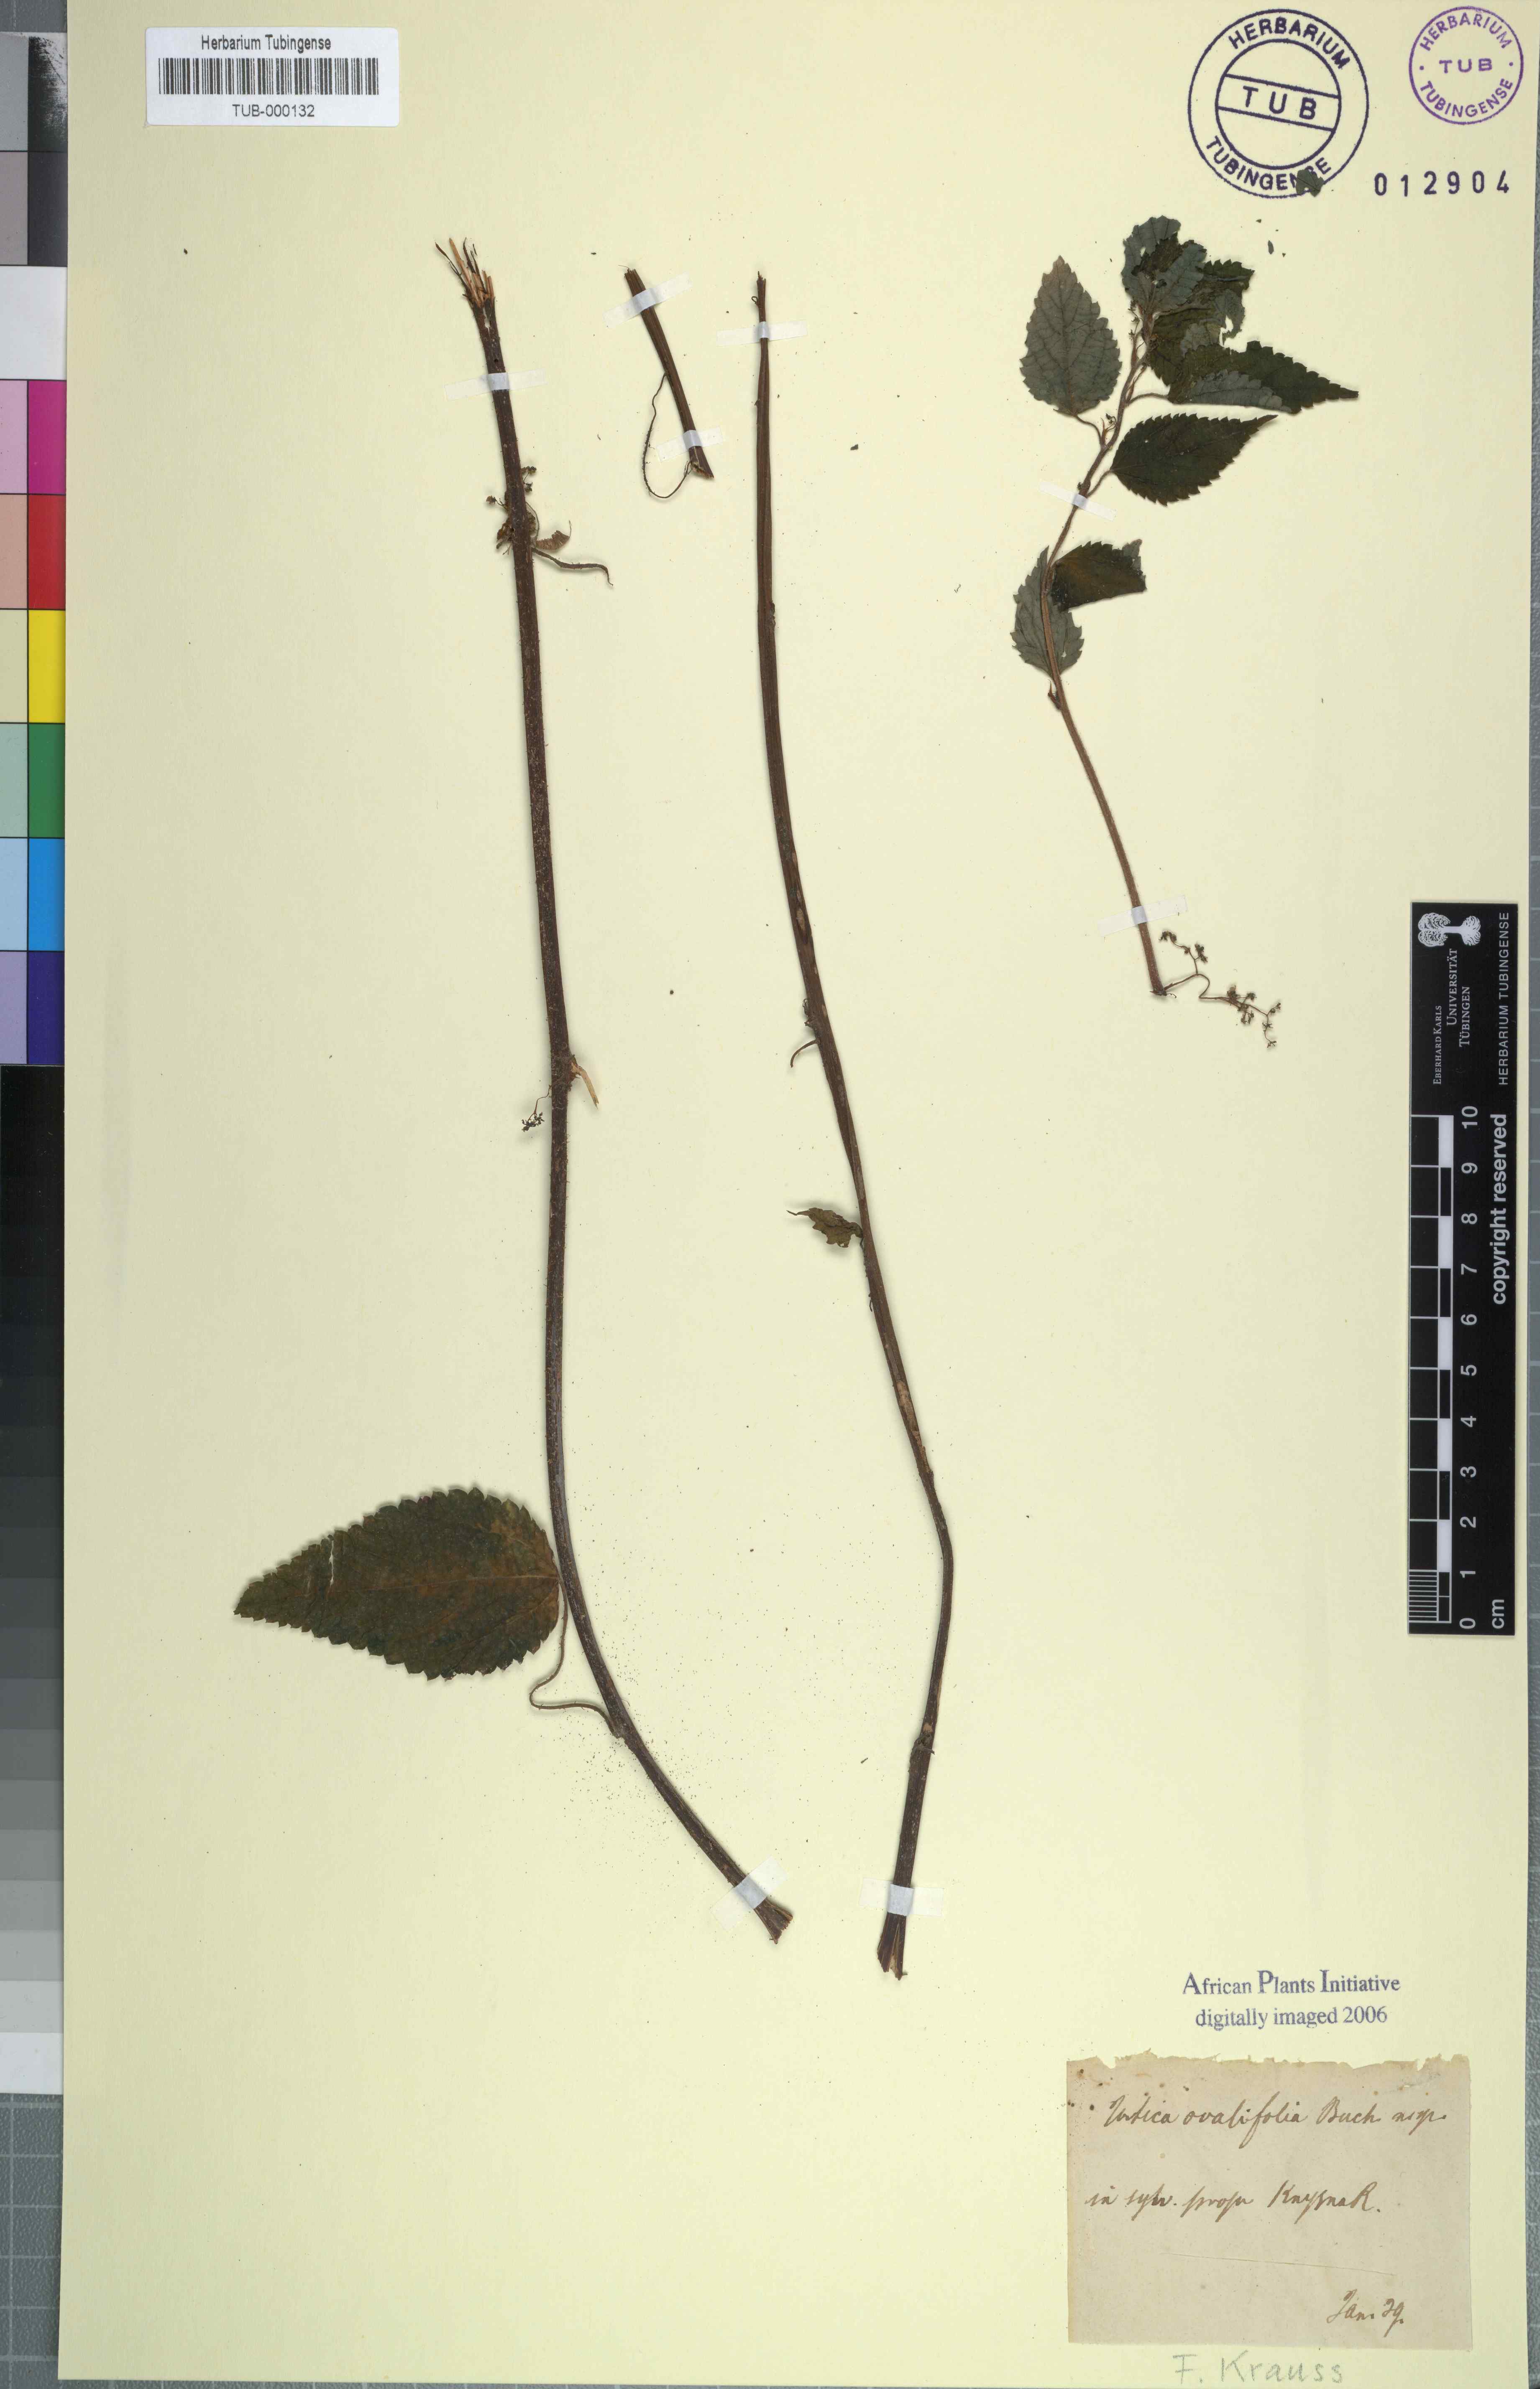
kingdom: Plantae
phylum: Tracheophyta
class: Magnoliopsida
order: Rosales
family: Urticaceae
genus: Didymodoxa
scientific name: Didymodoxa capensis
